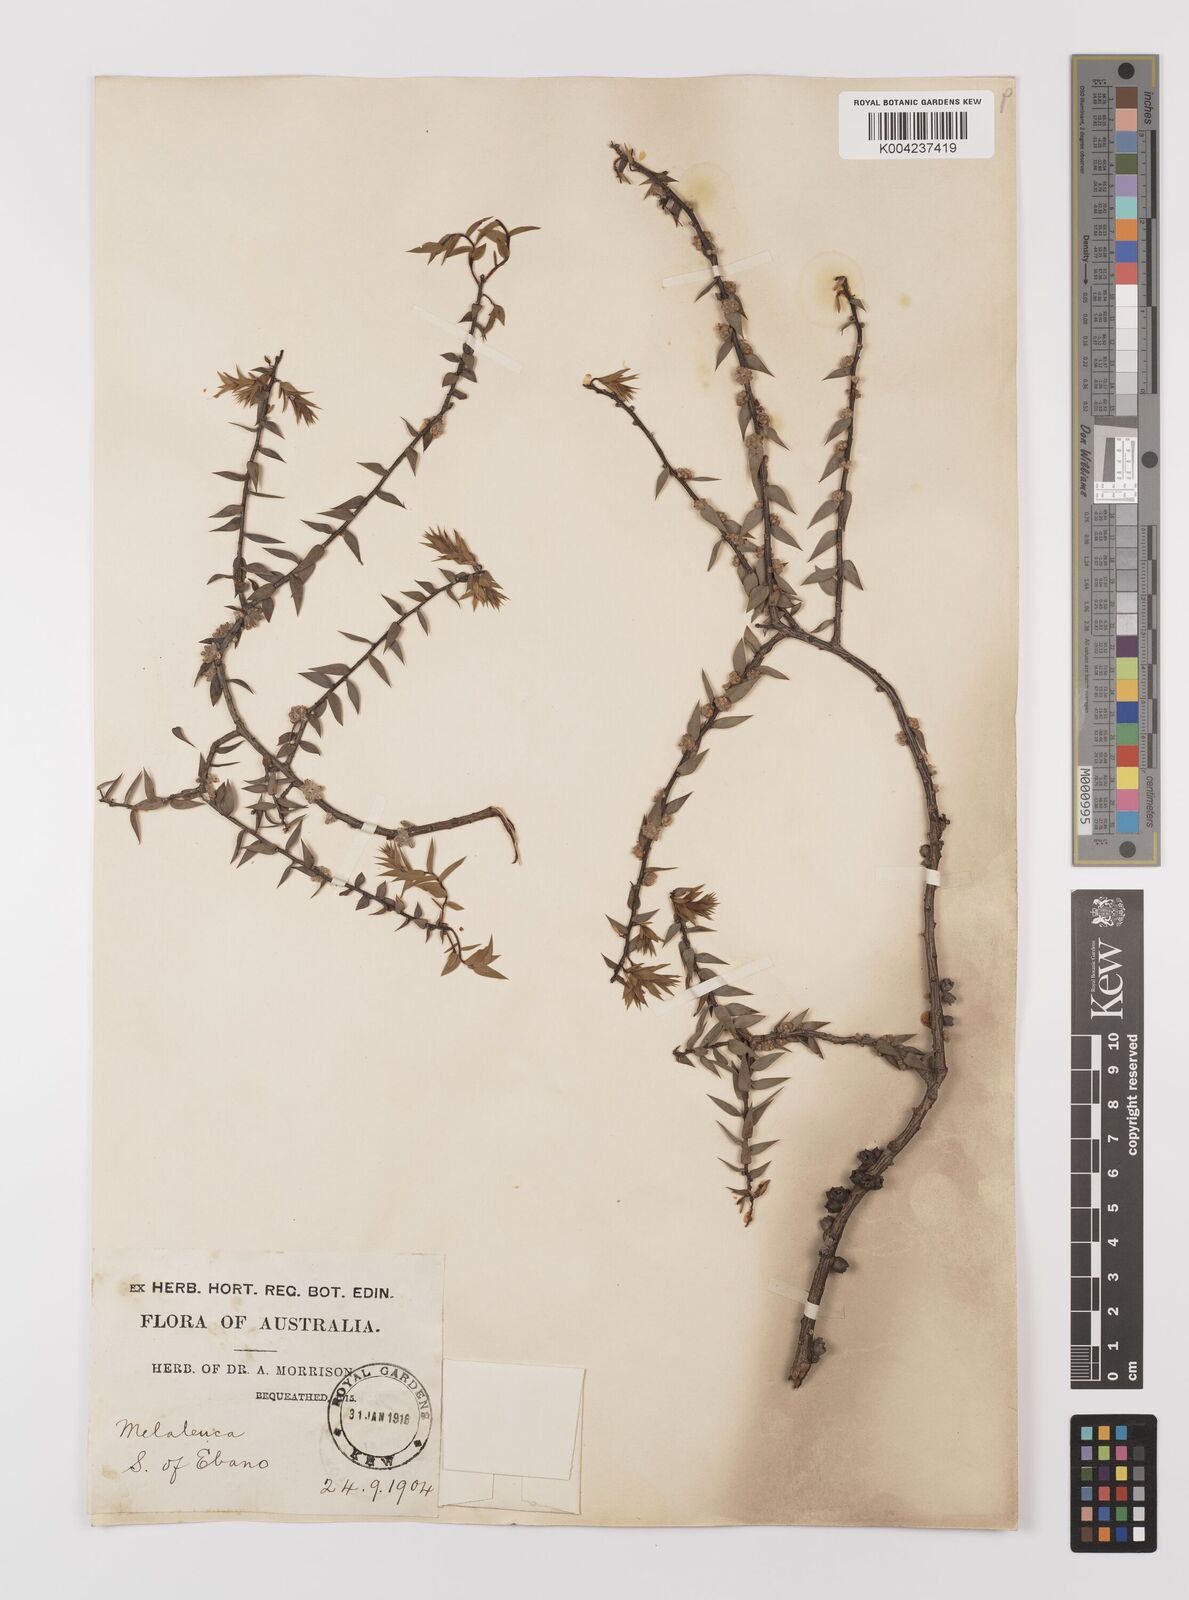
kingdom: Plantae
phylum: Tracheophyta
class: Magnoliopsida
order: Myrtales
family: Myrtaceae
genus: Melaleuca
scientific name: Melaleuca
